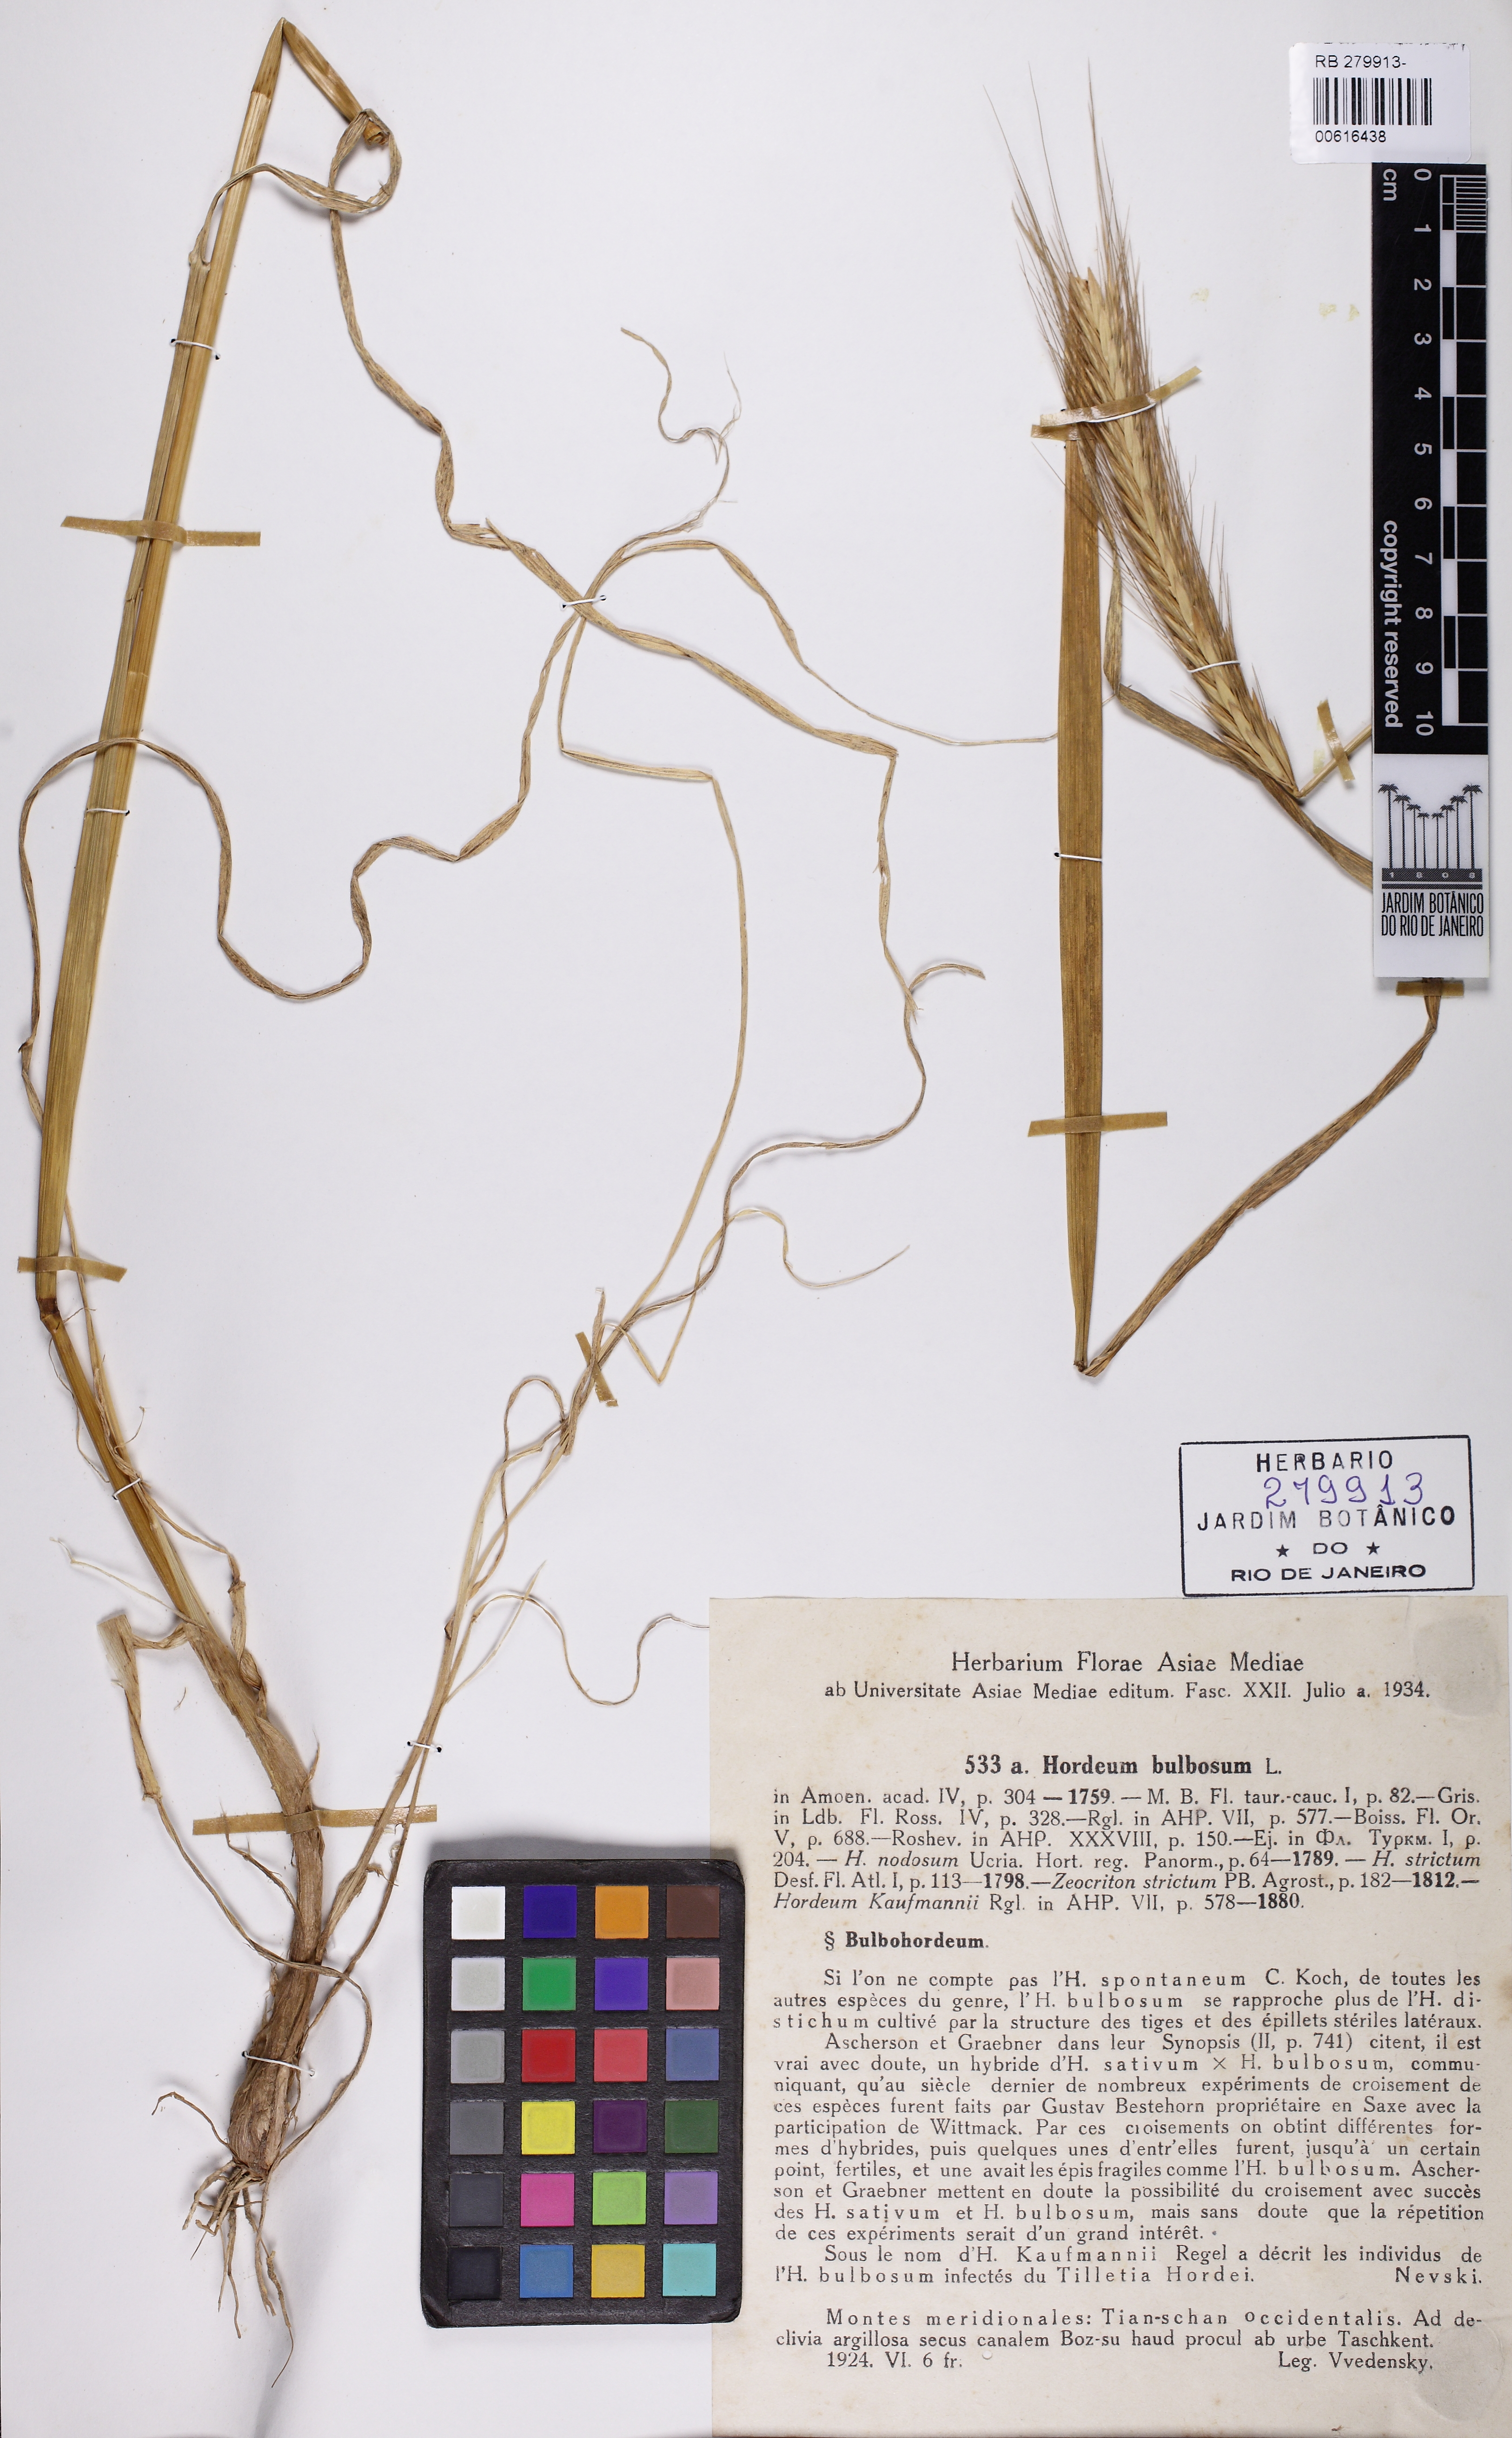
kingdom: Plantae
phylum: Tracheophyta
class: Liliopsida
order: Poales
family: Poaceae
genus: Hordeum
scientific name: Hordeum bulbosum
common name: Bulbous barley
